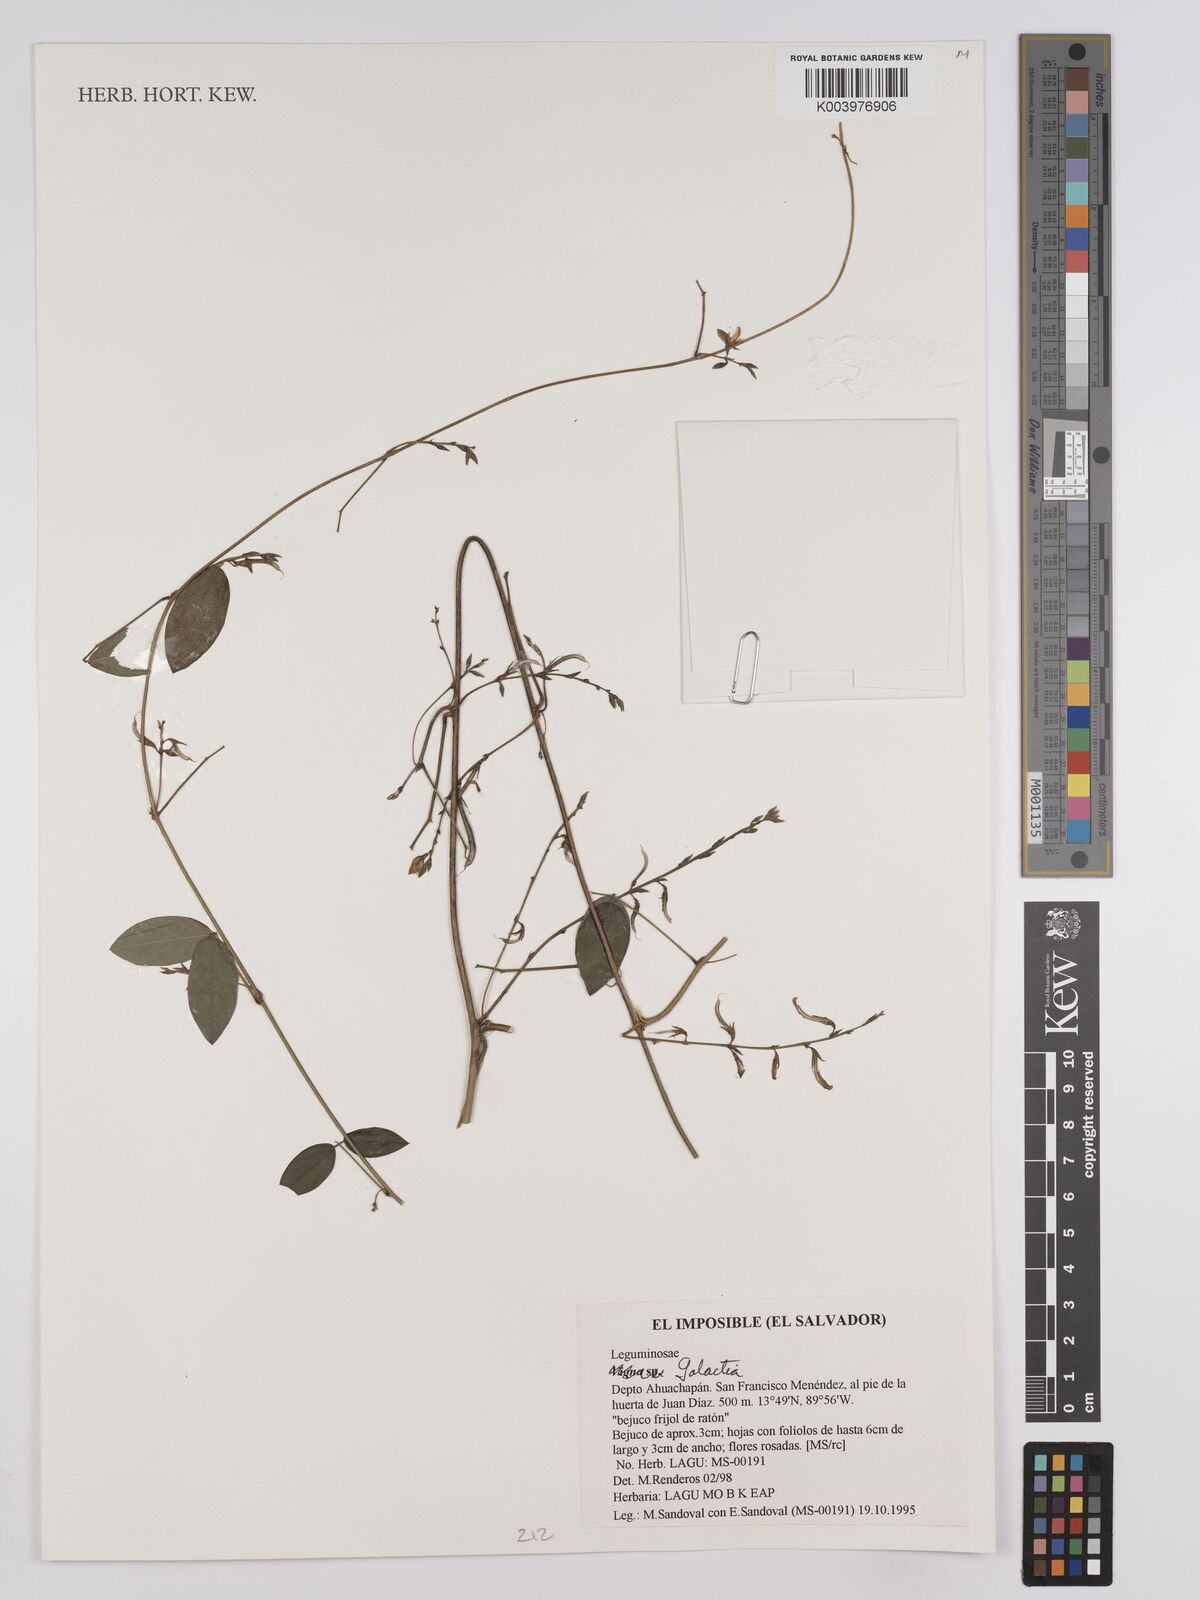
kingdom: Plantae
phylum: Tracheophyta
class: Magnoliopsida
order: Fabales
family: Fabaceae
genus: Galactia
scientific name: Galactia
